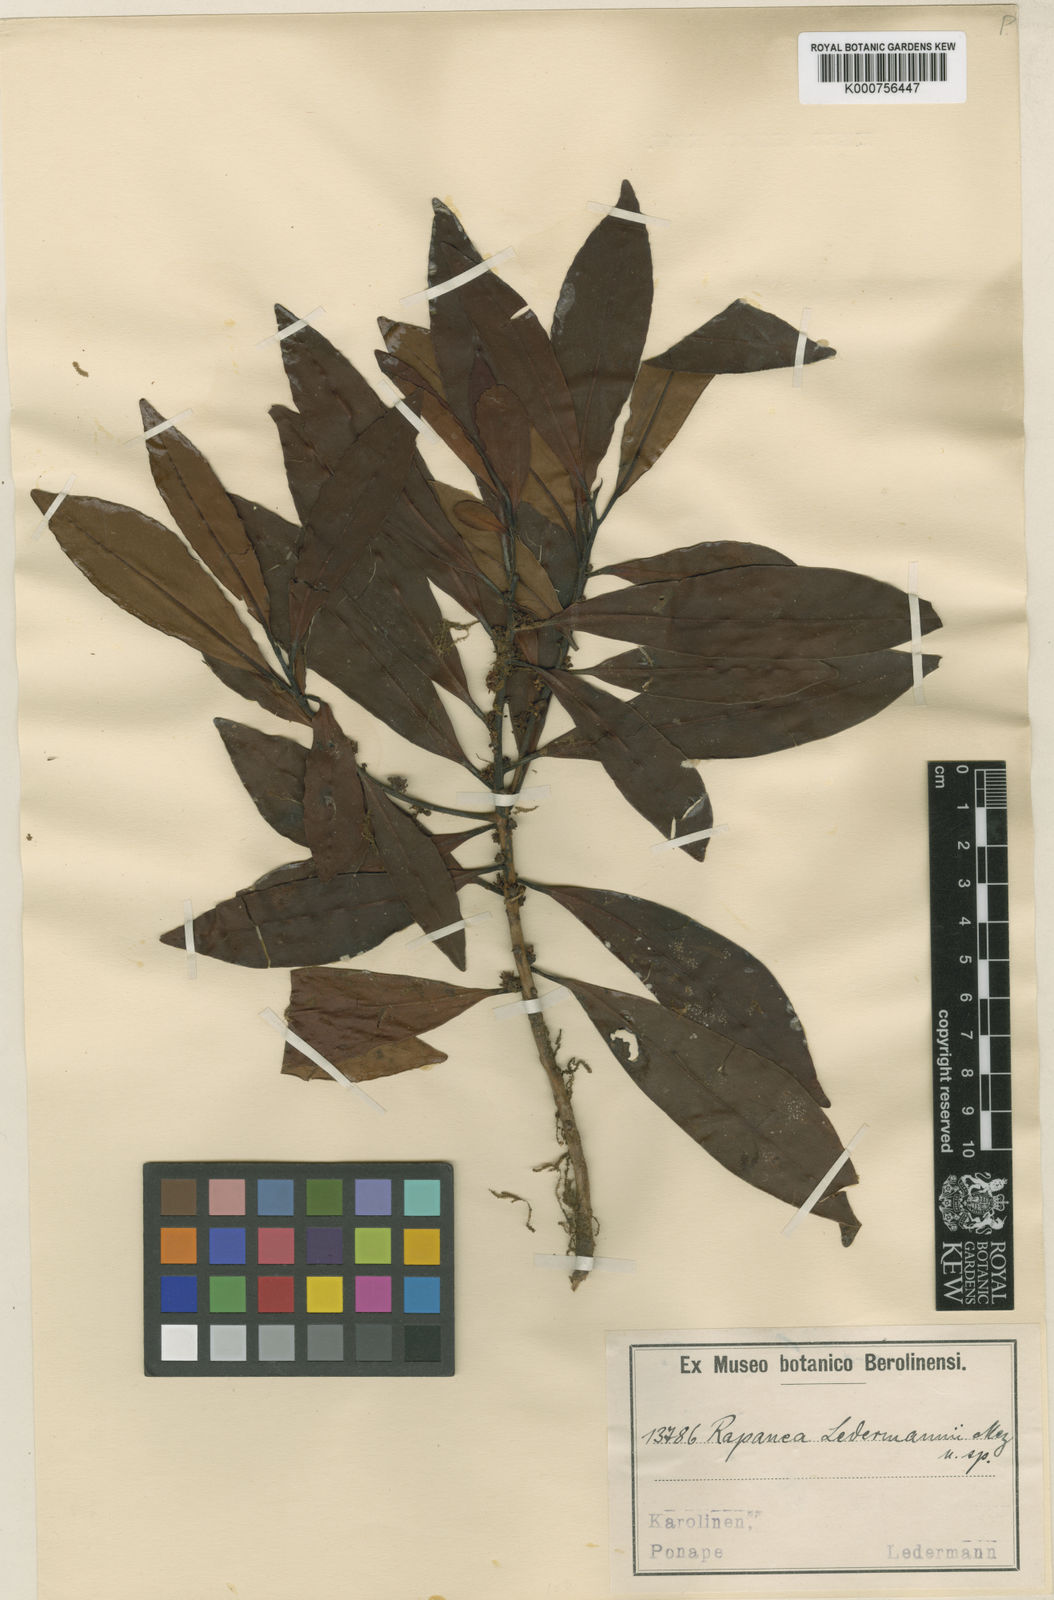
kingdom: Plantae
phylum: Tracheophyta
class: Magnoliopsida
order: Ericales
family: Primulaceae
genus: Myrsine
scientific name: Myrsine ledermannii
